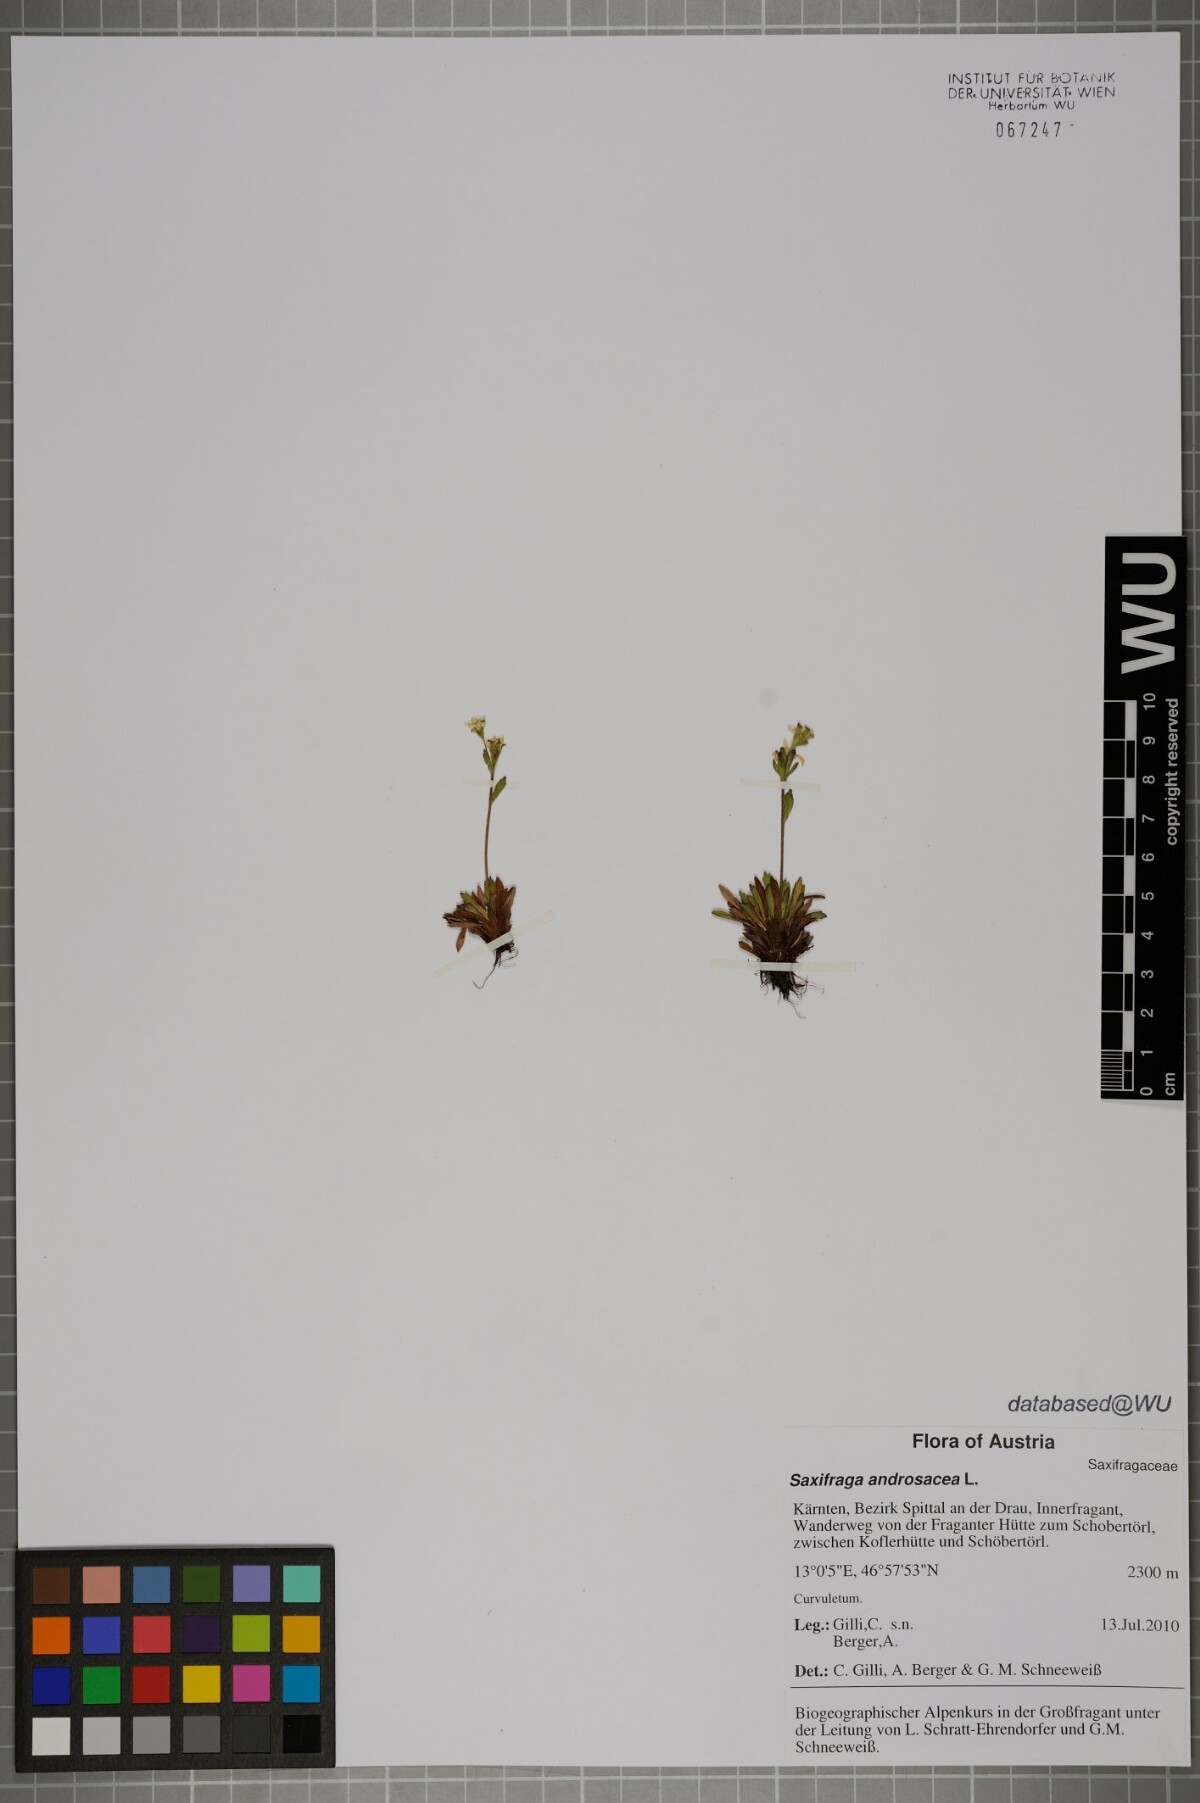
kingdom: Plantae
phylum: Tracheophyta
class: Magnoliopsida
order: Saxifragales
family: Saxifragaceae
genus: Saxifraga
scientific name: Saxifraga androsacea
